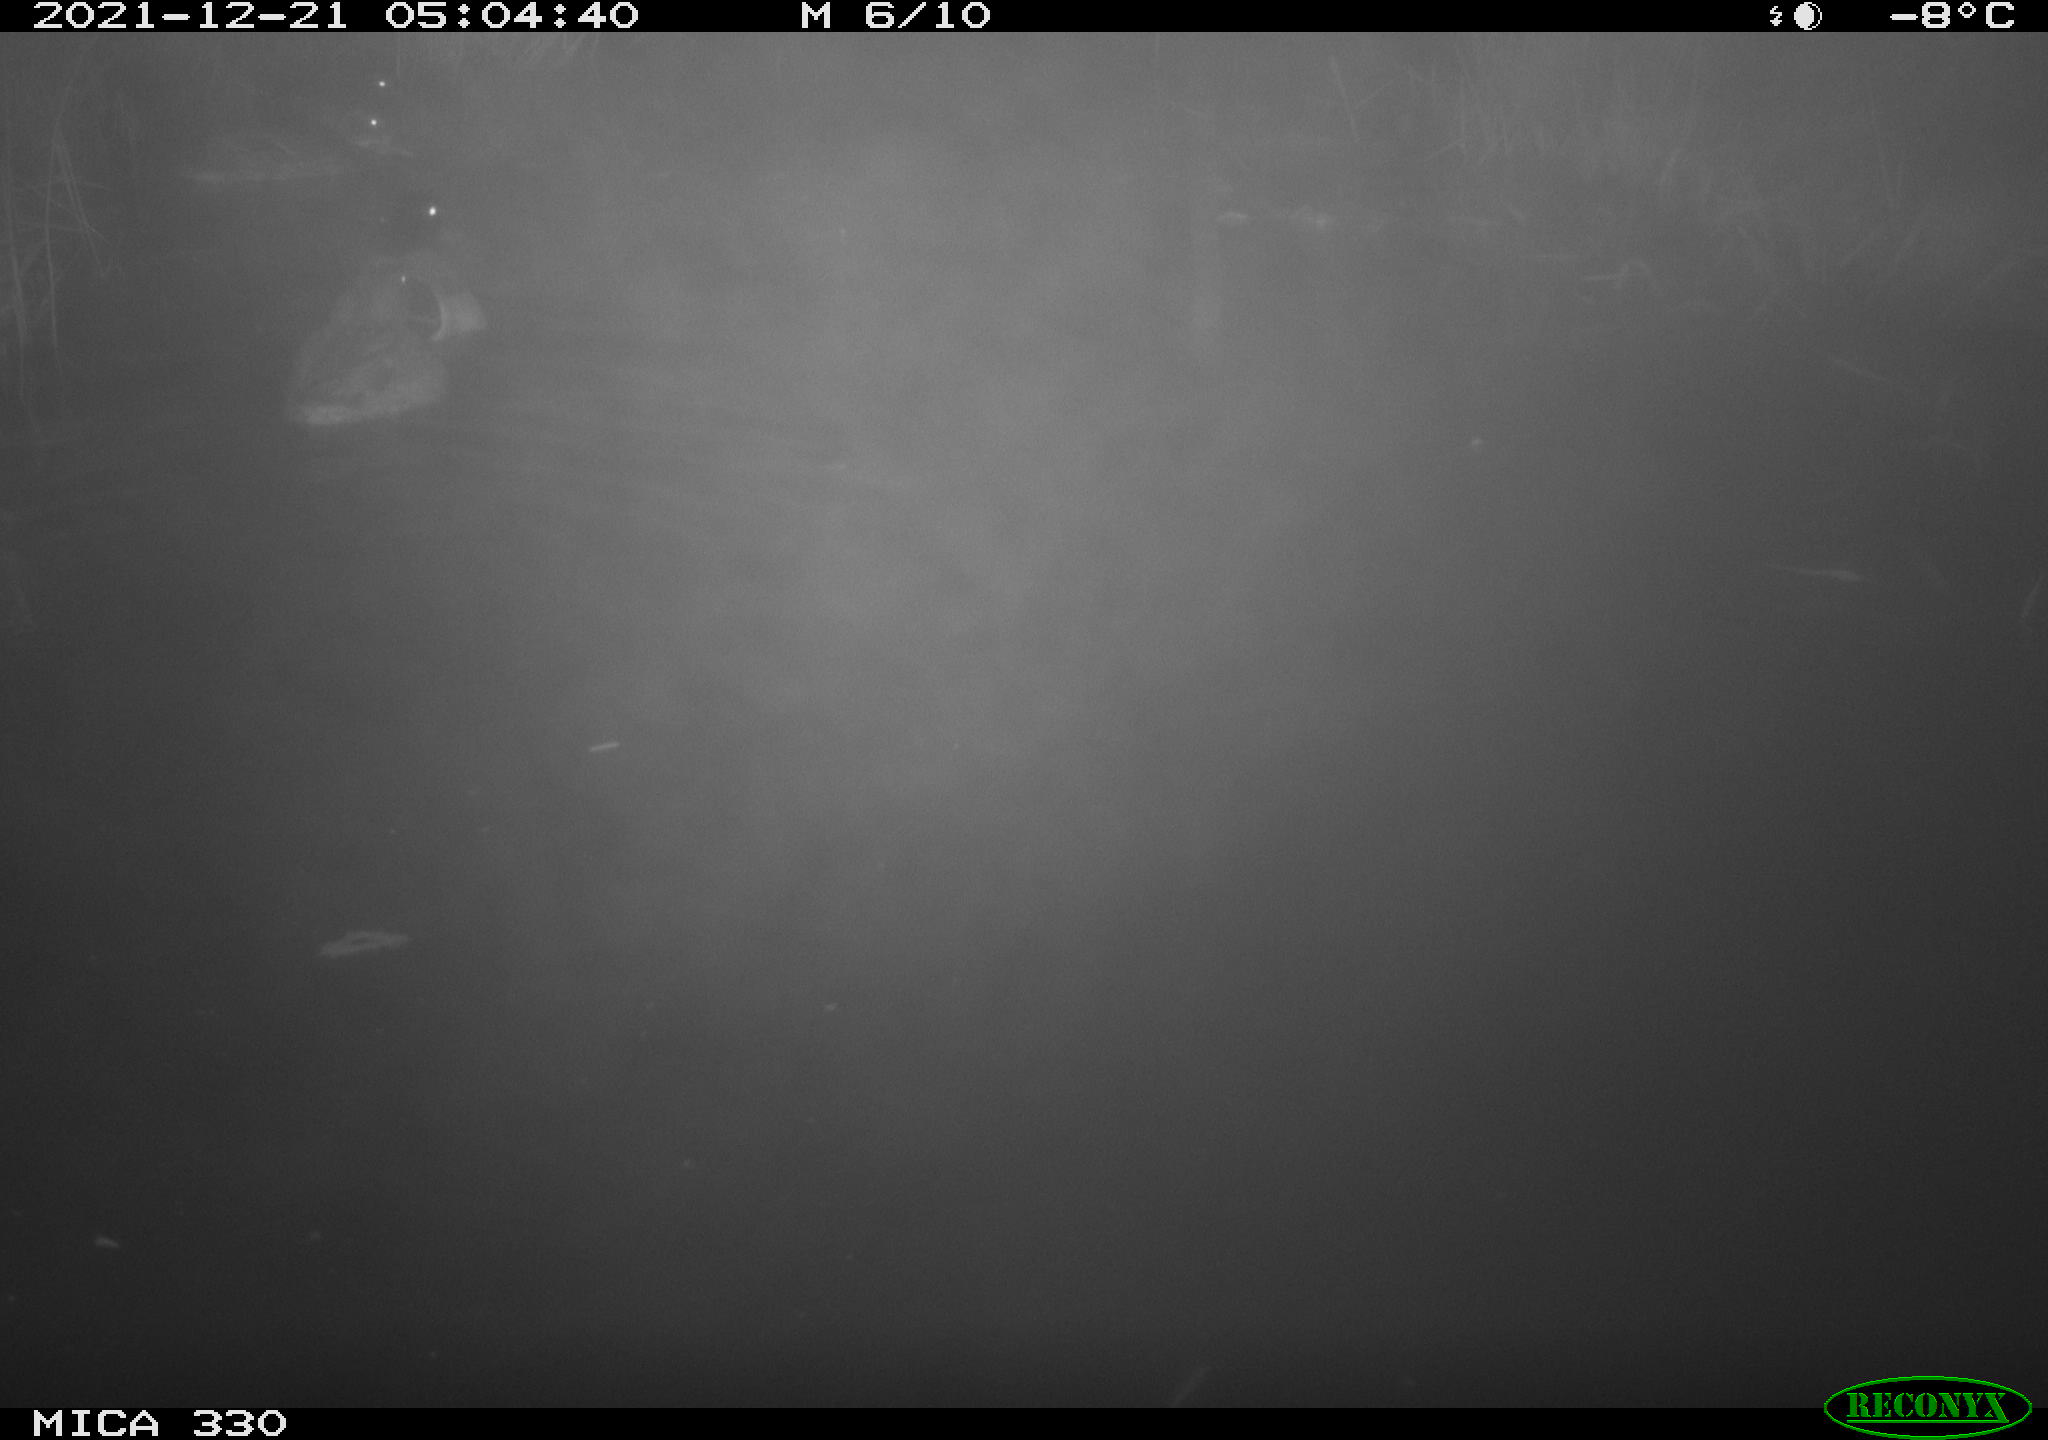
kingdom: Animalia
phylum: Chordata
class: Aves
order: Anseriformes
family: Anatidae
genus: Anas
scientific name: Anas platyrhynchos
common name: Mallard
